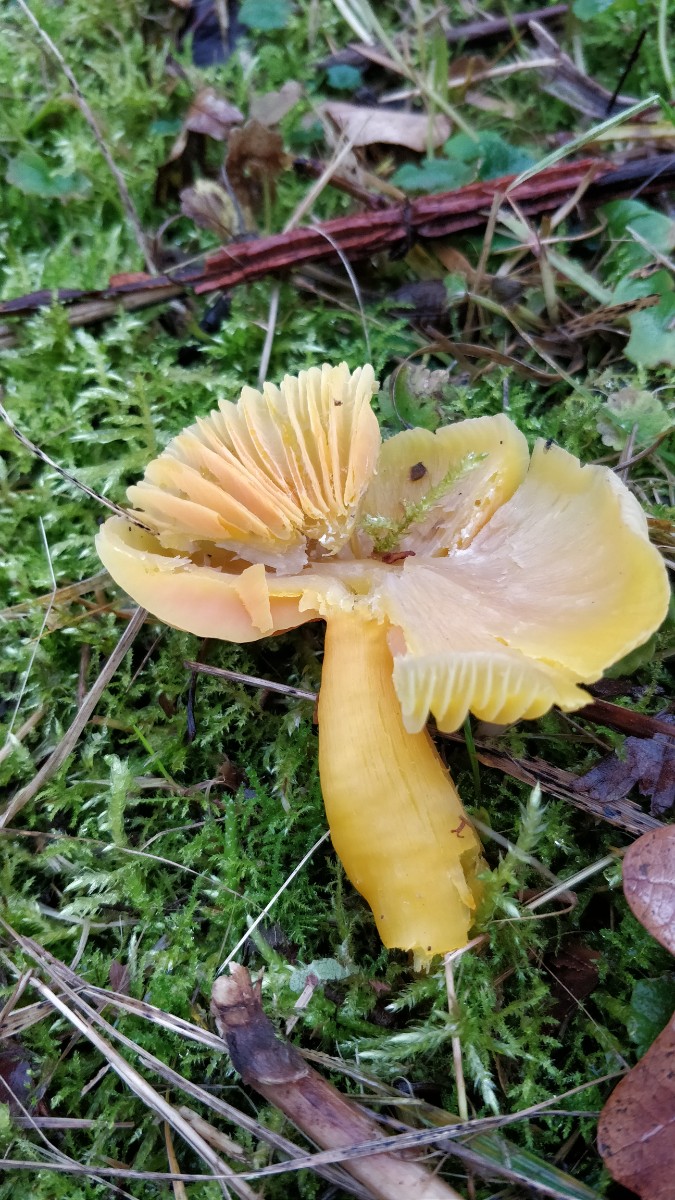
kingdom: Fungi
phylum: Basidiomycota
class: Agaricomycetes
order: Agaricales
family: Hygrophoraceae
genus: Hygrocybe
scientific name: Hygrocybe quieta
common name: tæge-vokshat
